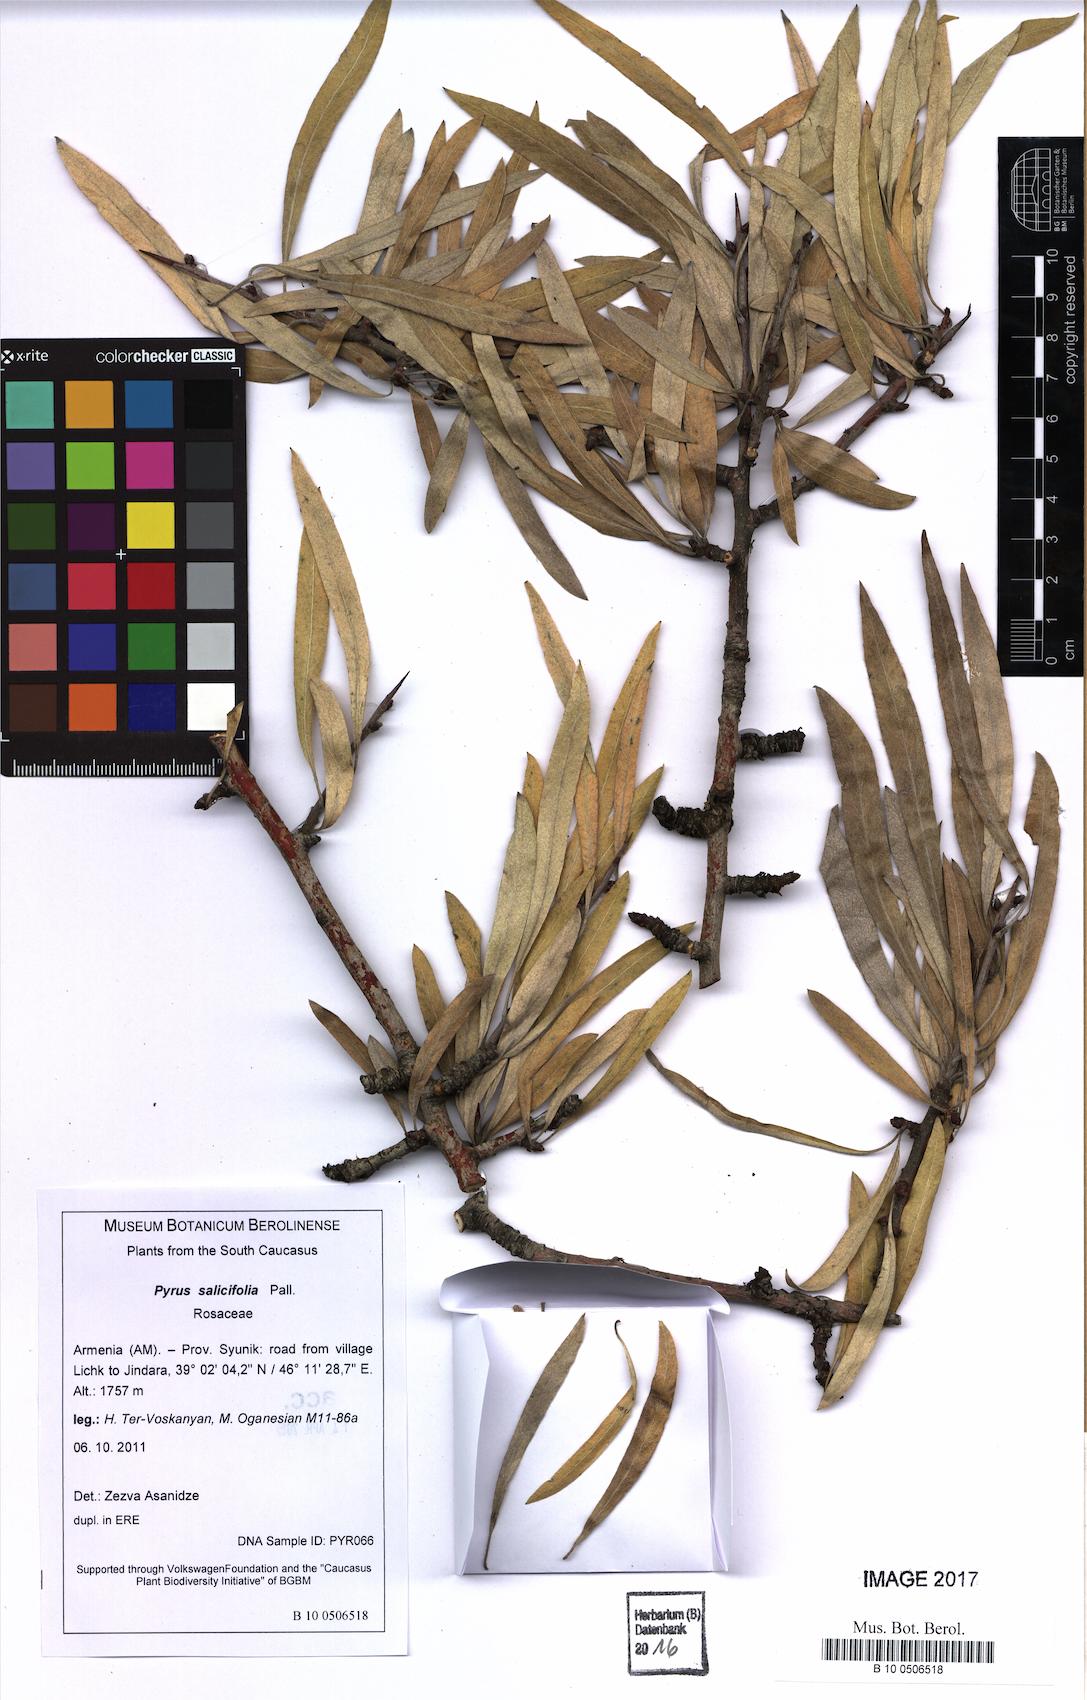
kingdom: Plantae
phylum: Tracheophyta
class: Magnoliopsida
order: Rosales
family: Rosaceae
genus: Pyrus
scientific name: Pyrus salicifolia
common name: Willow-leaved pear
